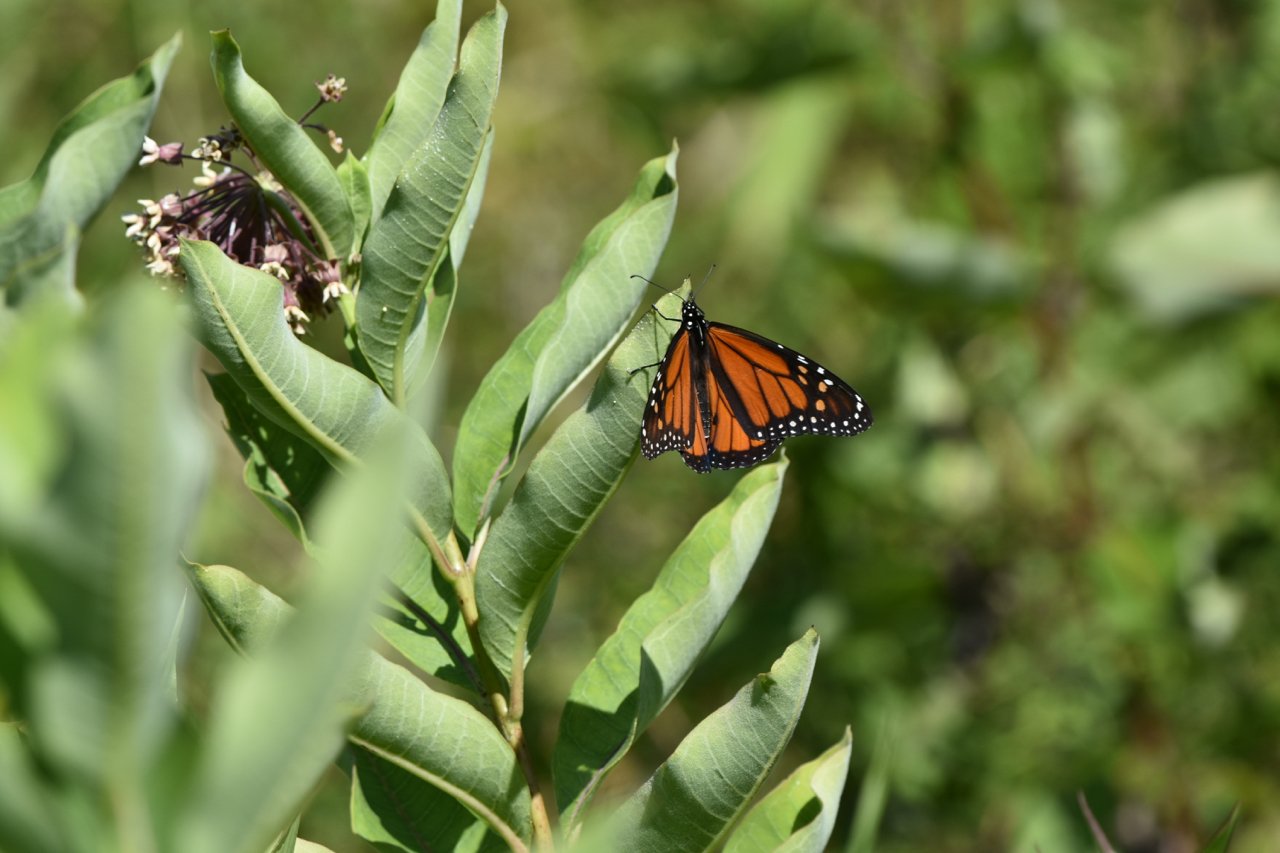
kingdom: Animalia
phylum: Arthropoda
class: Insecta
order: Lepidoptera
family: Nymphalidae
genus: Danaus
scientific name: Danaus plexippus
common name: Monarch
